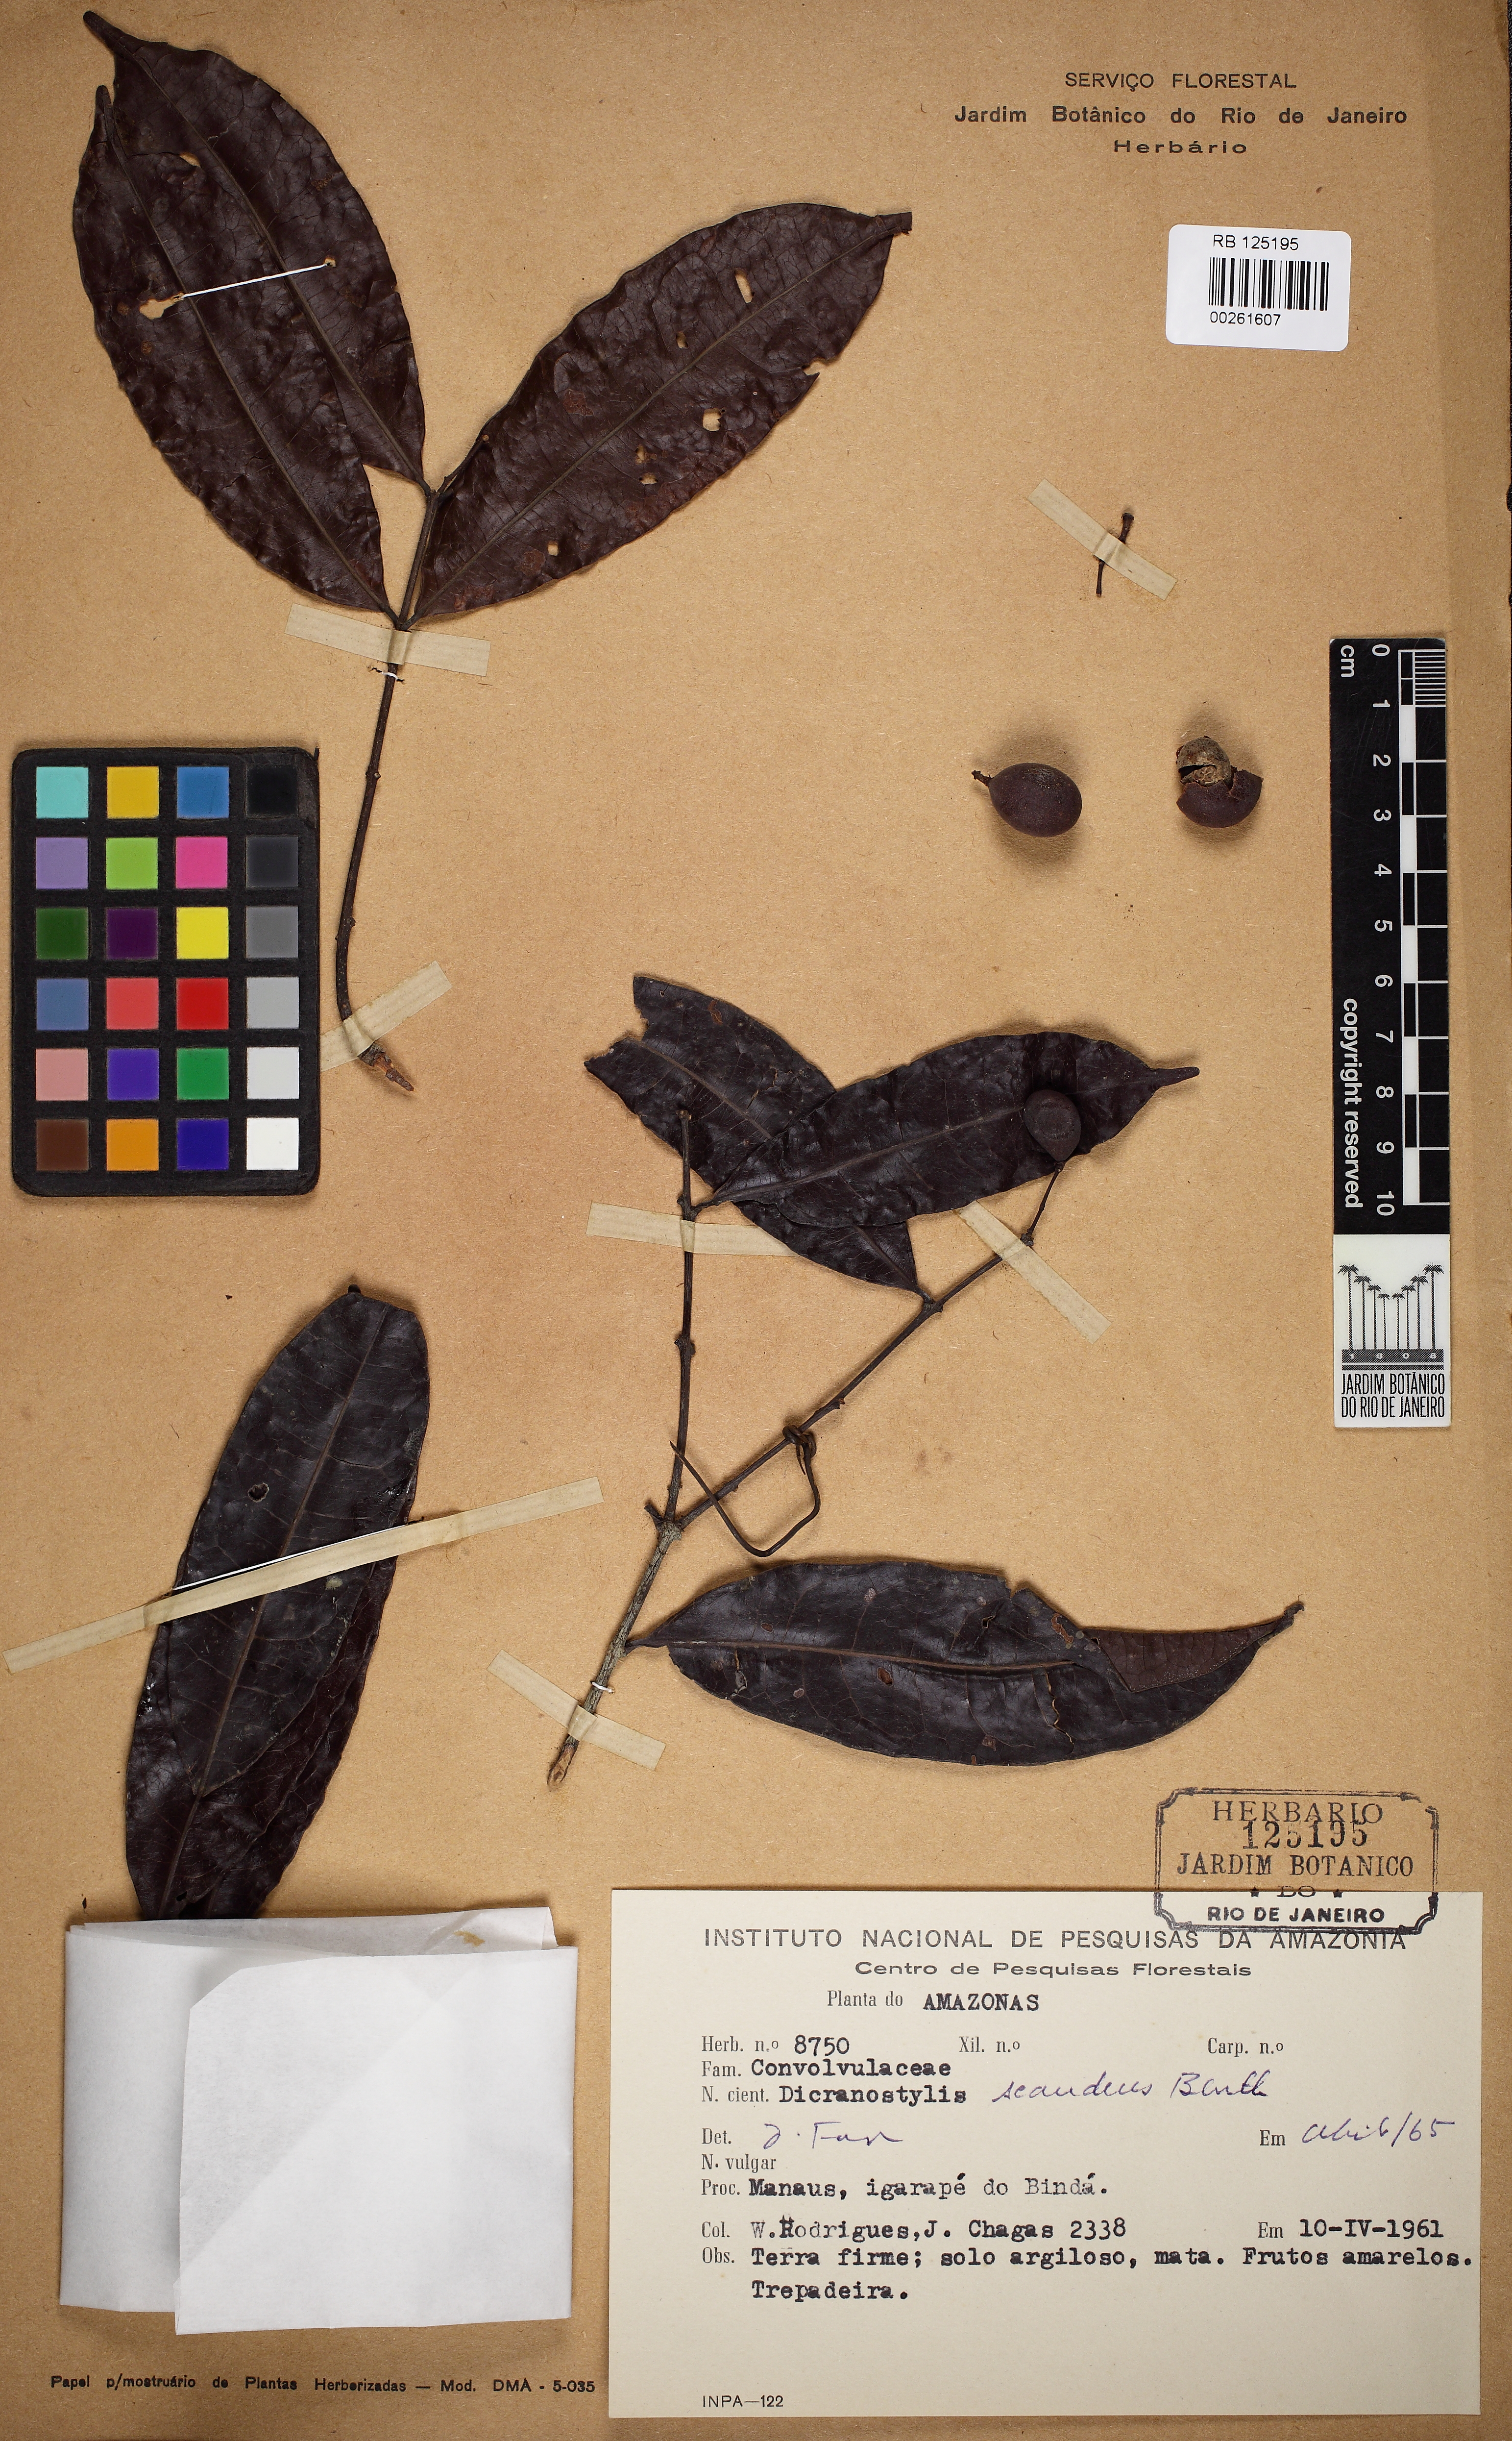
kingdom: Plantae
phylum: Tracheophyta
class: Magnoliopsida
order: Fabales
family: Polygalaceae
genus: Moutabea
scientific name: Moutabea
